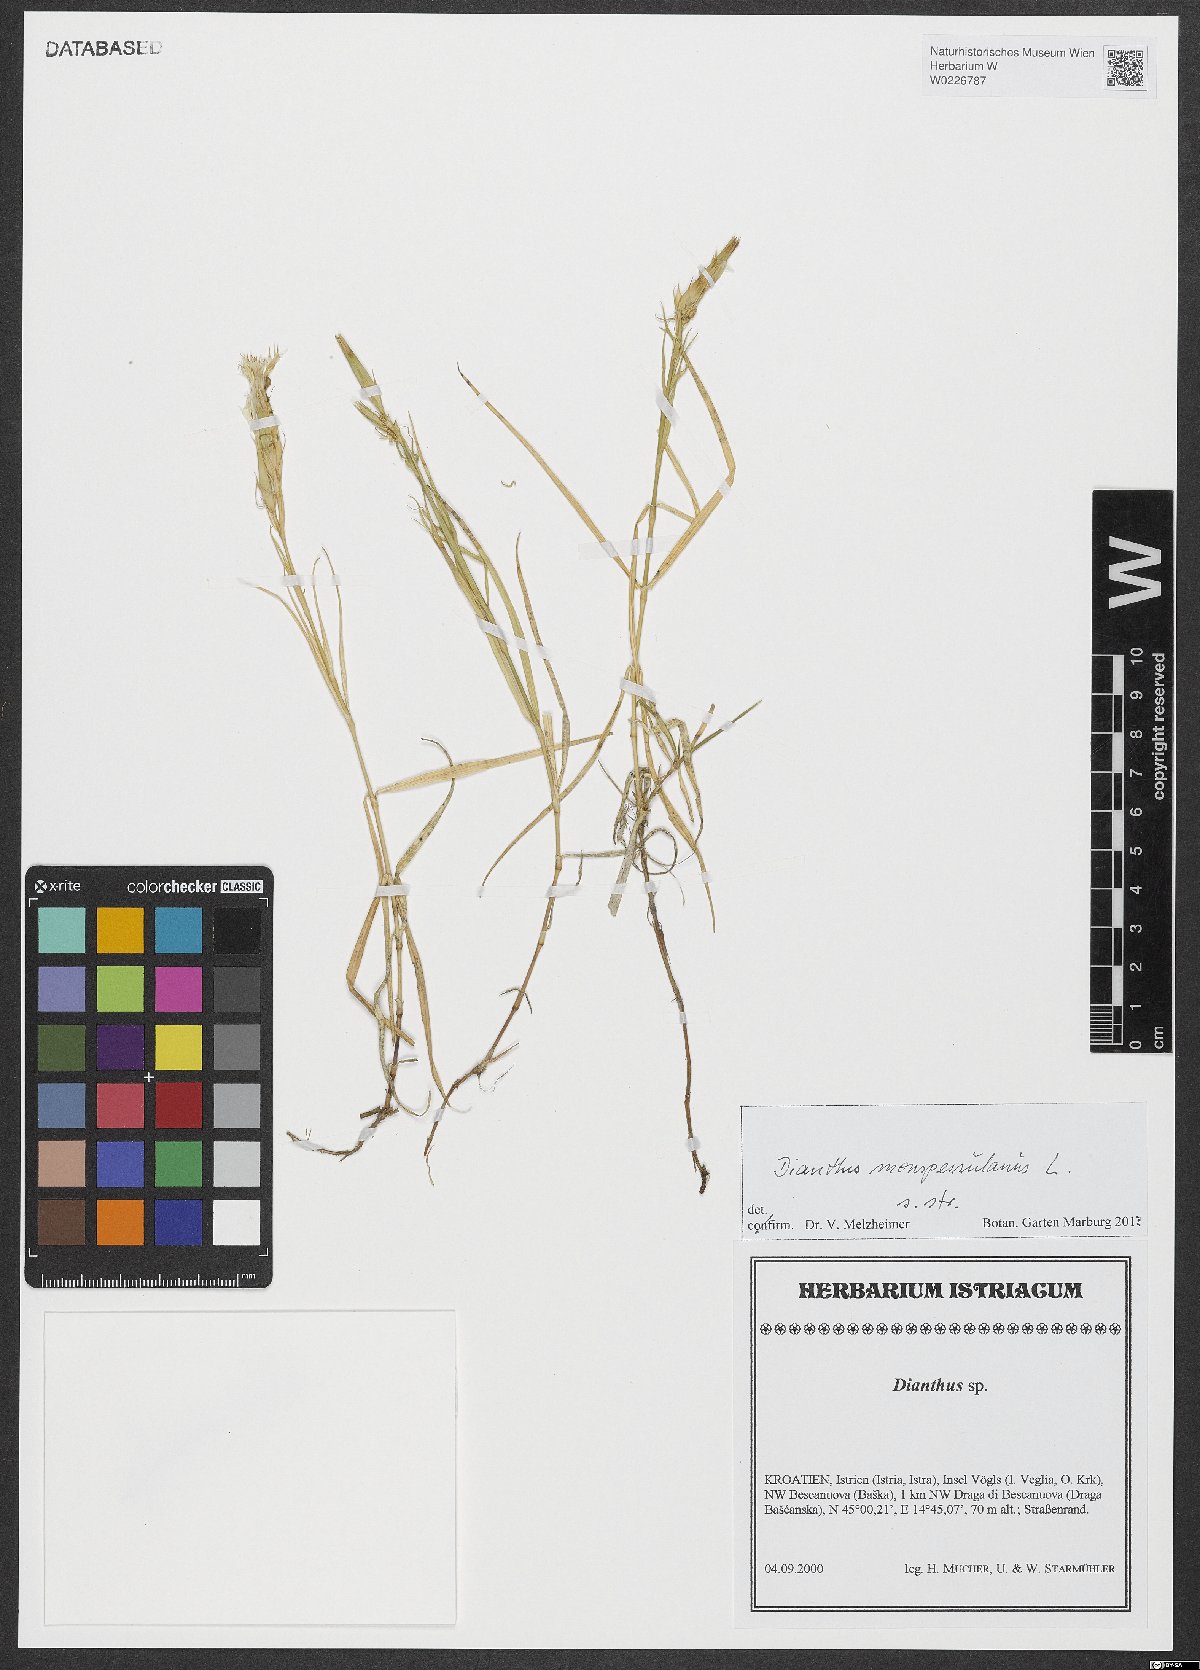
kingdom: Plantae
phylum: Tracheophyta
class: Magnoliopsida
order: Caryophyllales
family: Caryophyllaceae
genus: Dianthus
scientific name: Dianthus hyssopifolius
